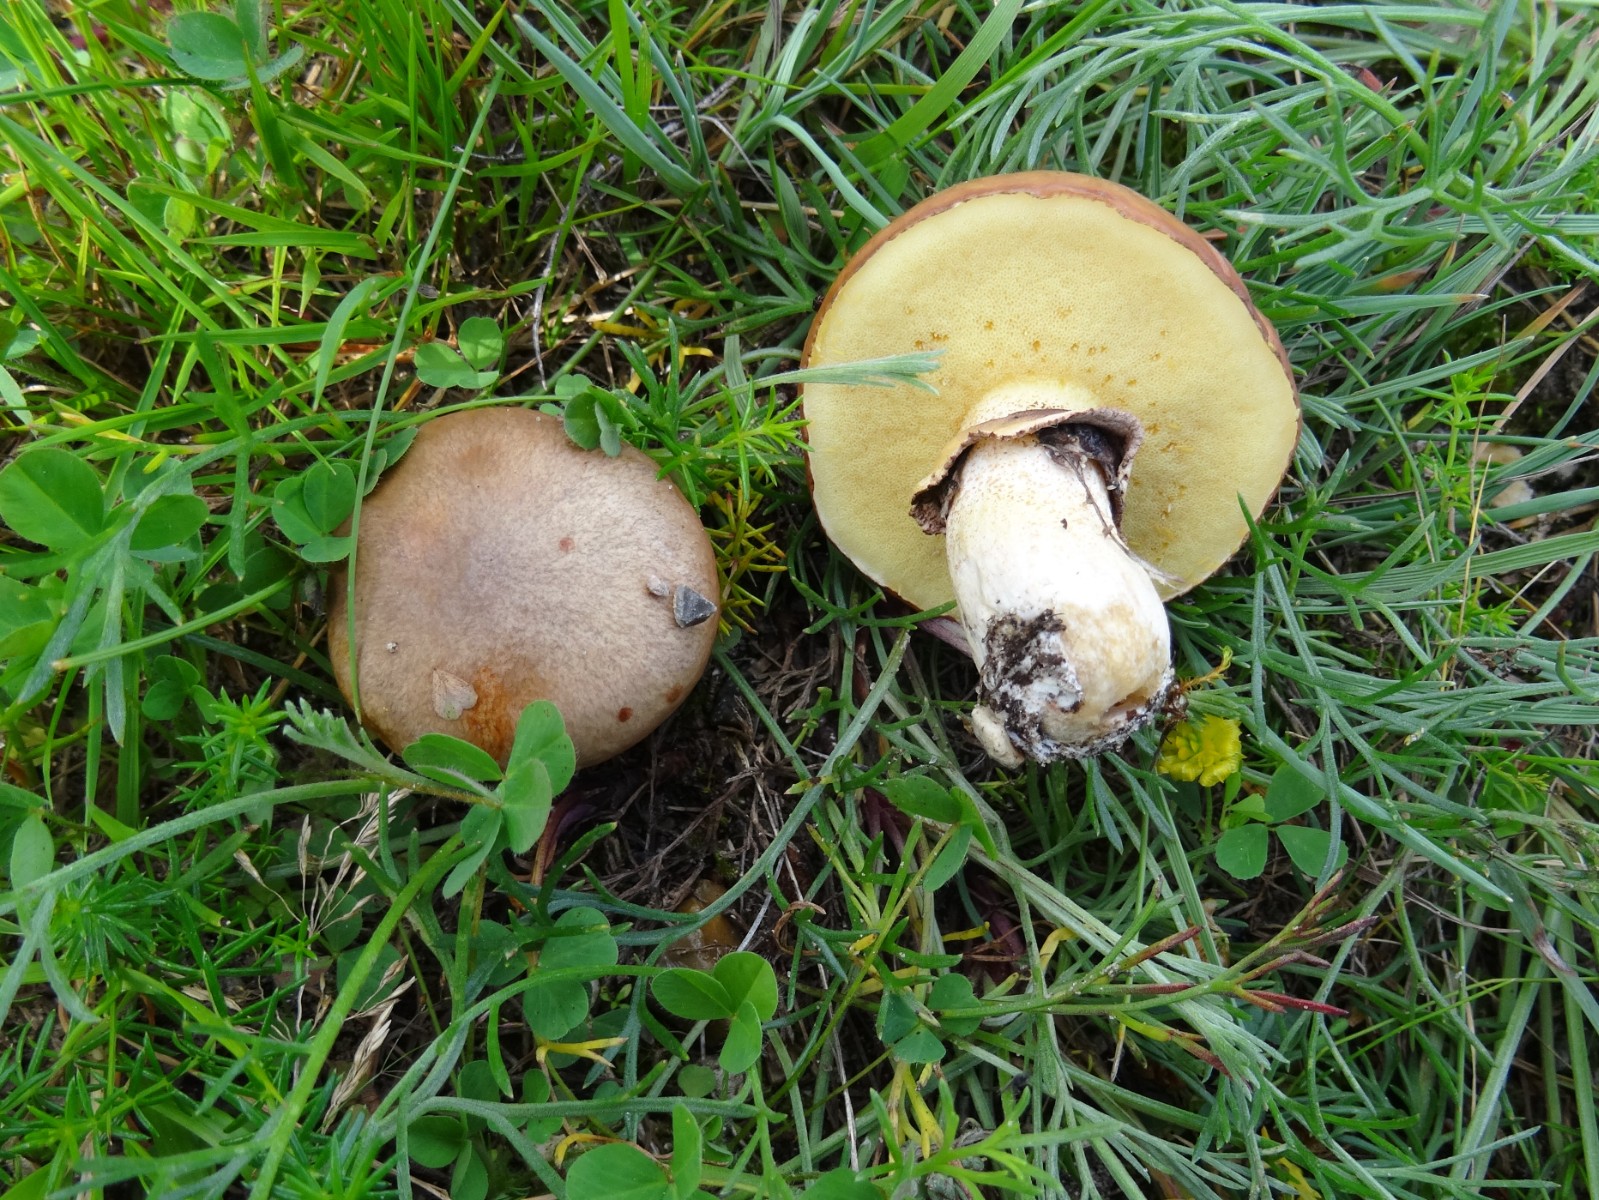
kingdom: Fungi
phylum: Basidiomycota
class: Agaricomycetes
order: Boletales
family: Suillaceae
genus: Suillus
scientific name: Suillus luteus
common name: brungul slimrørhat
